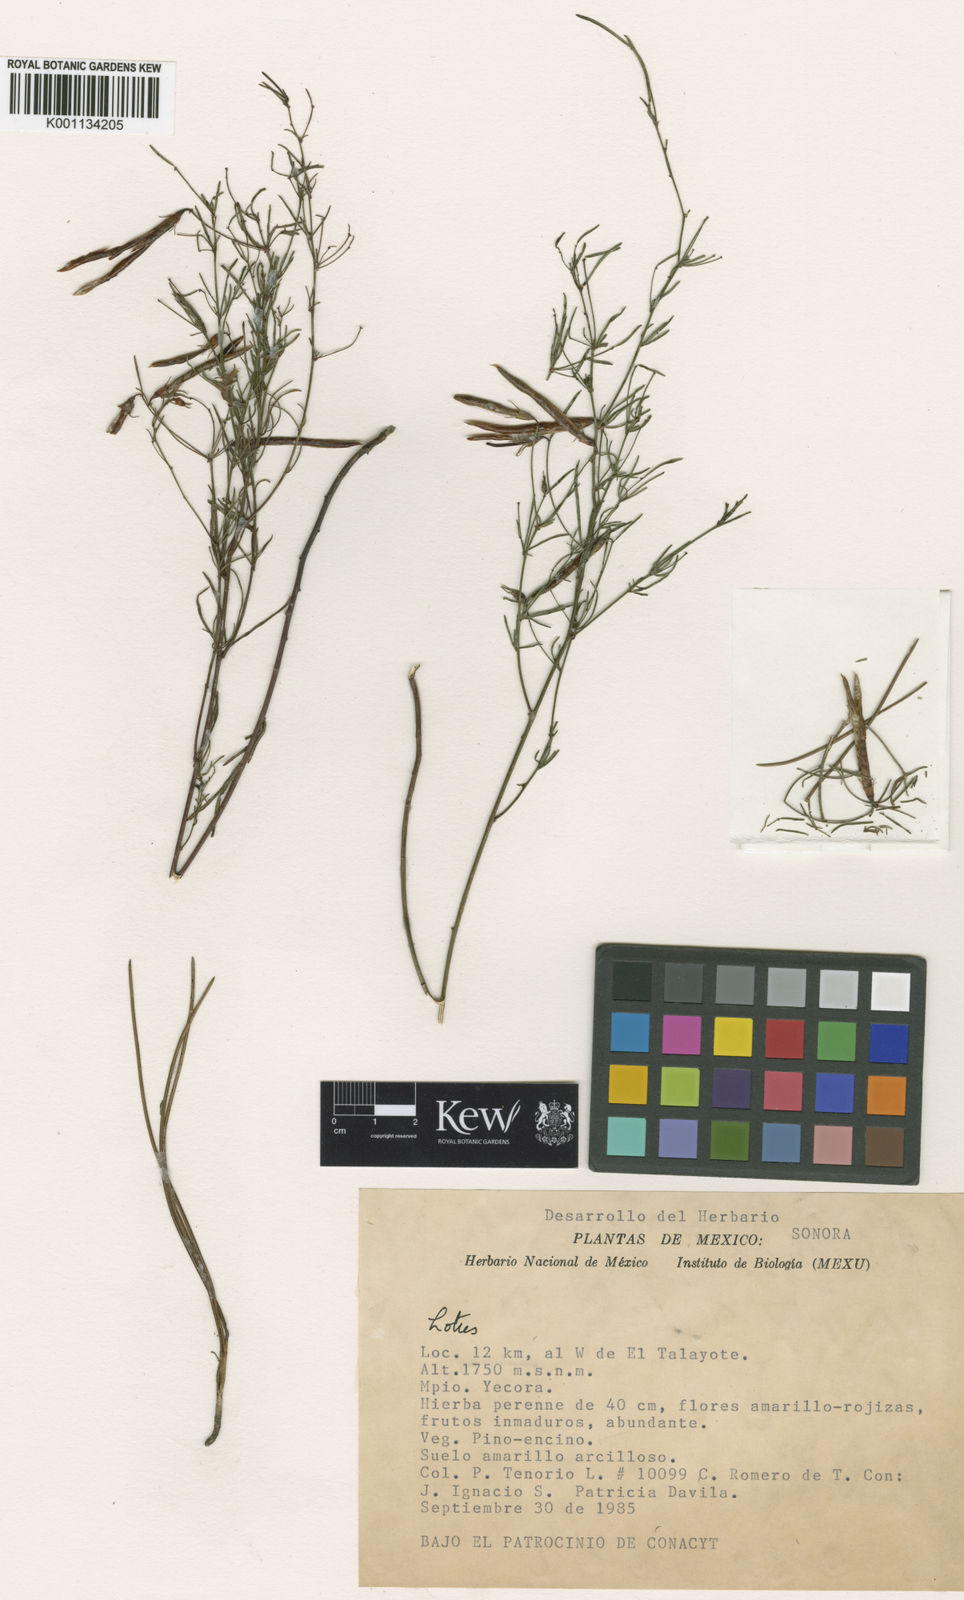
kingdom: Plantae
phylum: Tracheophyta
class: Magnoliopsida
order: Fabales
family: Fabaceae
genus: Acmispon
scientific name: Acmispon wrightii
